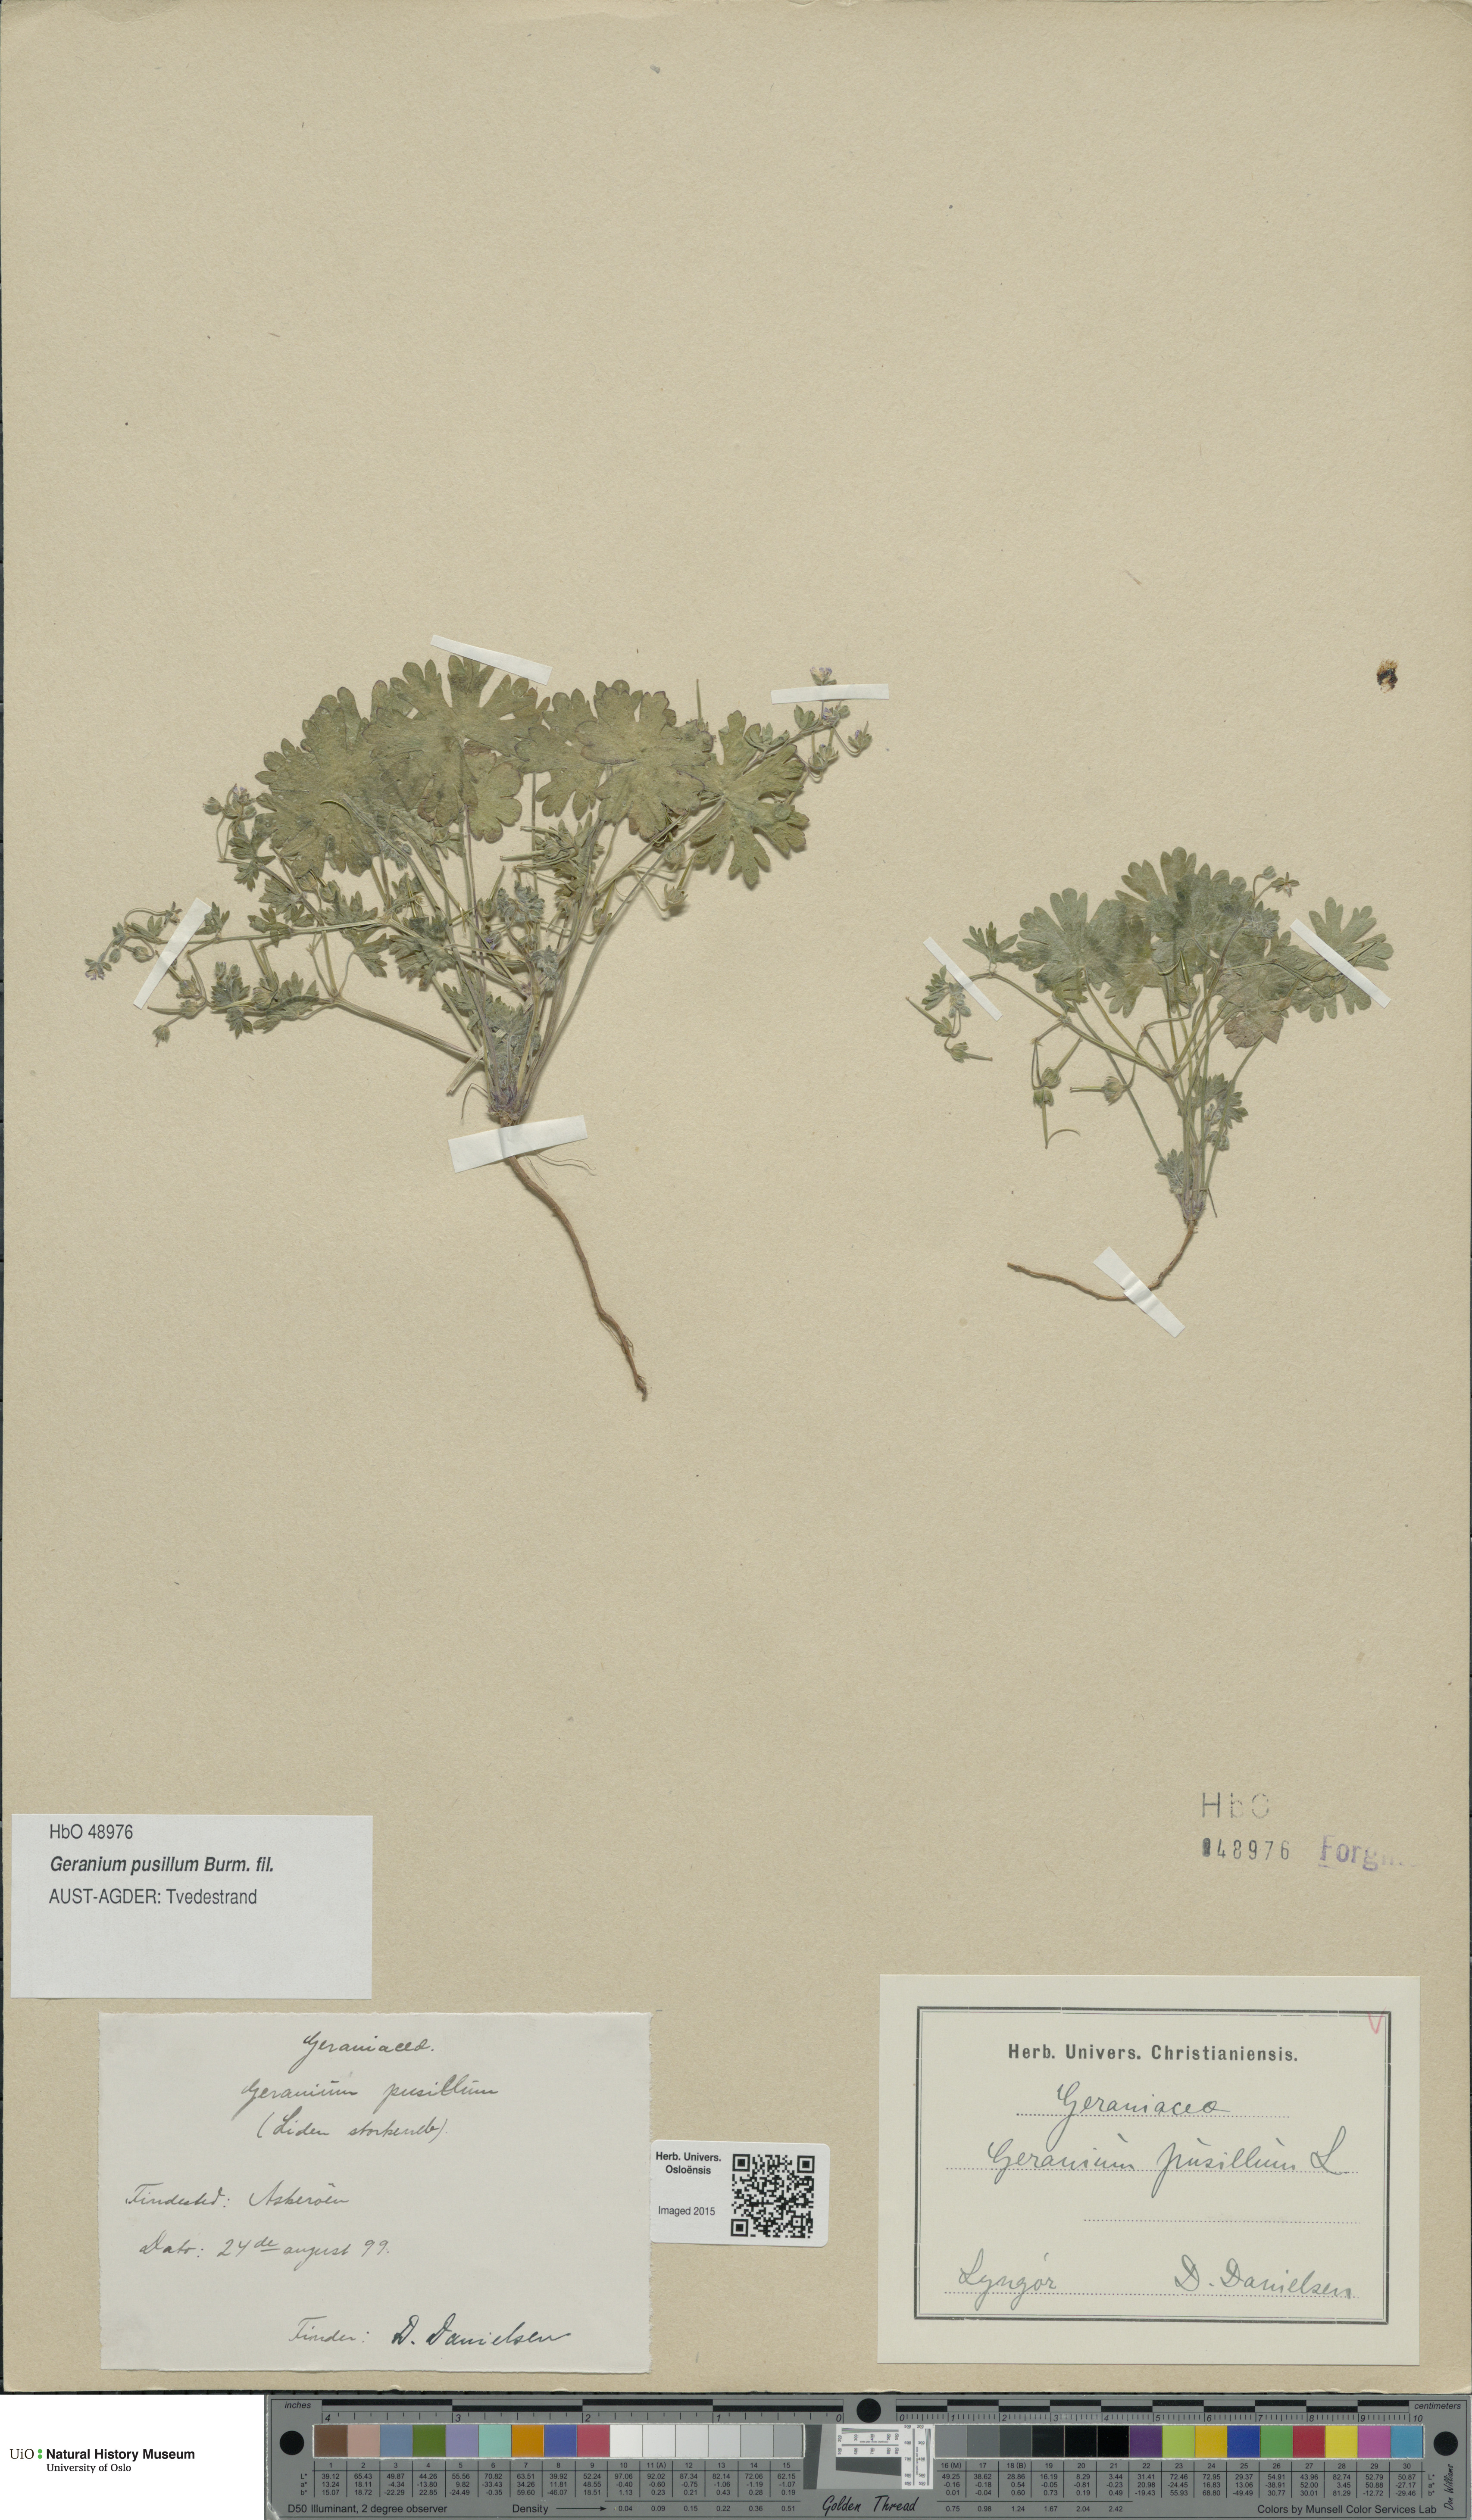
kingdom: Plantae
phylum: Tracheophyta
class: Magnoliopsida
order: Geraniales
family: Geraniaceae
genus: Geranium
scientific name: Geranium pusillum
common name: Small geranium
